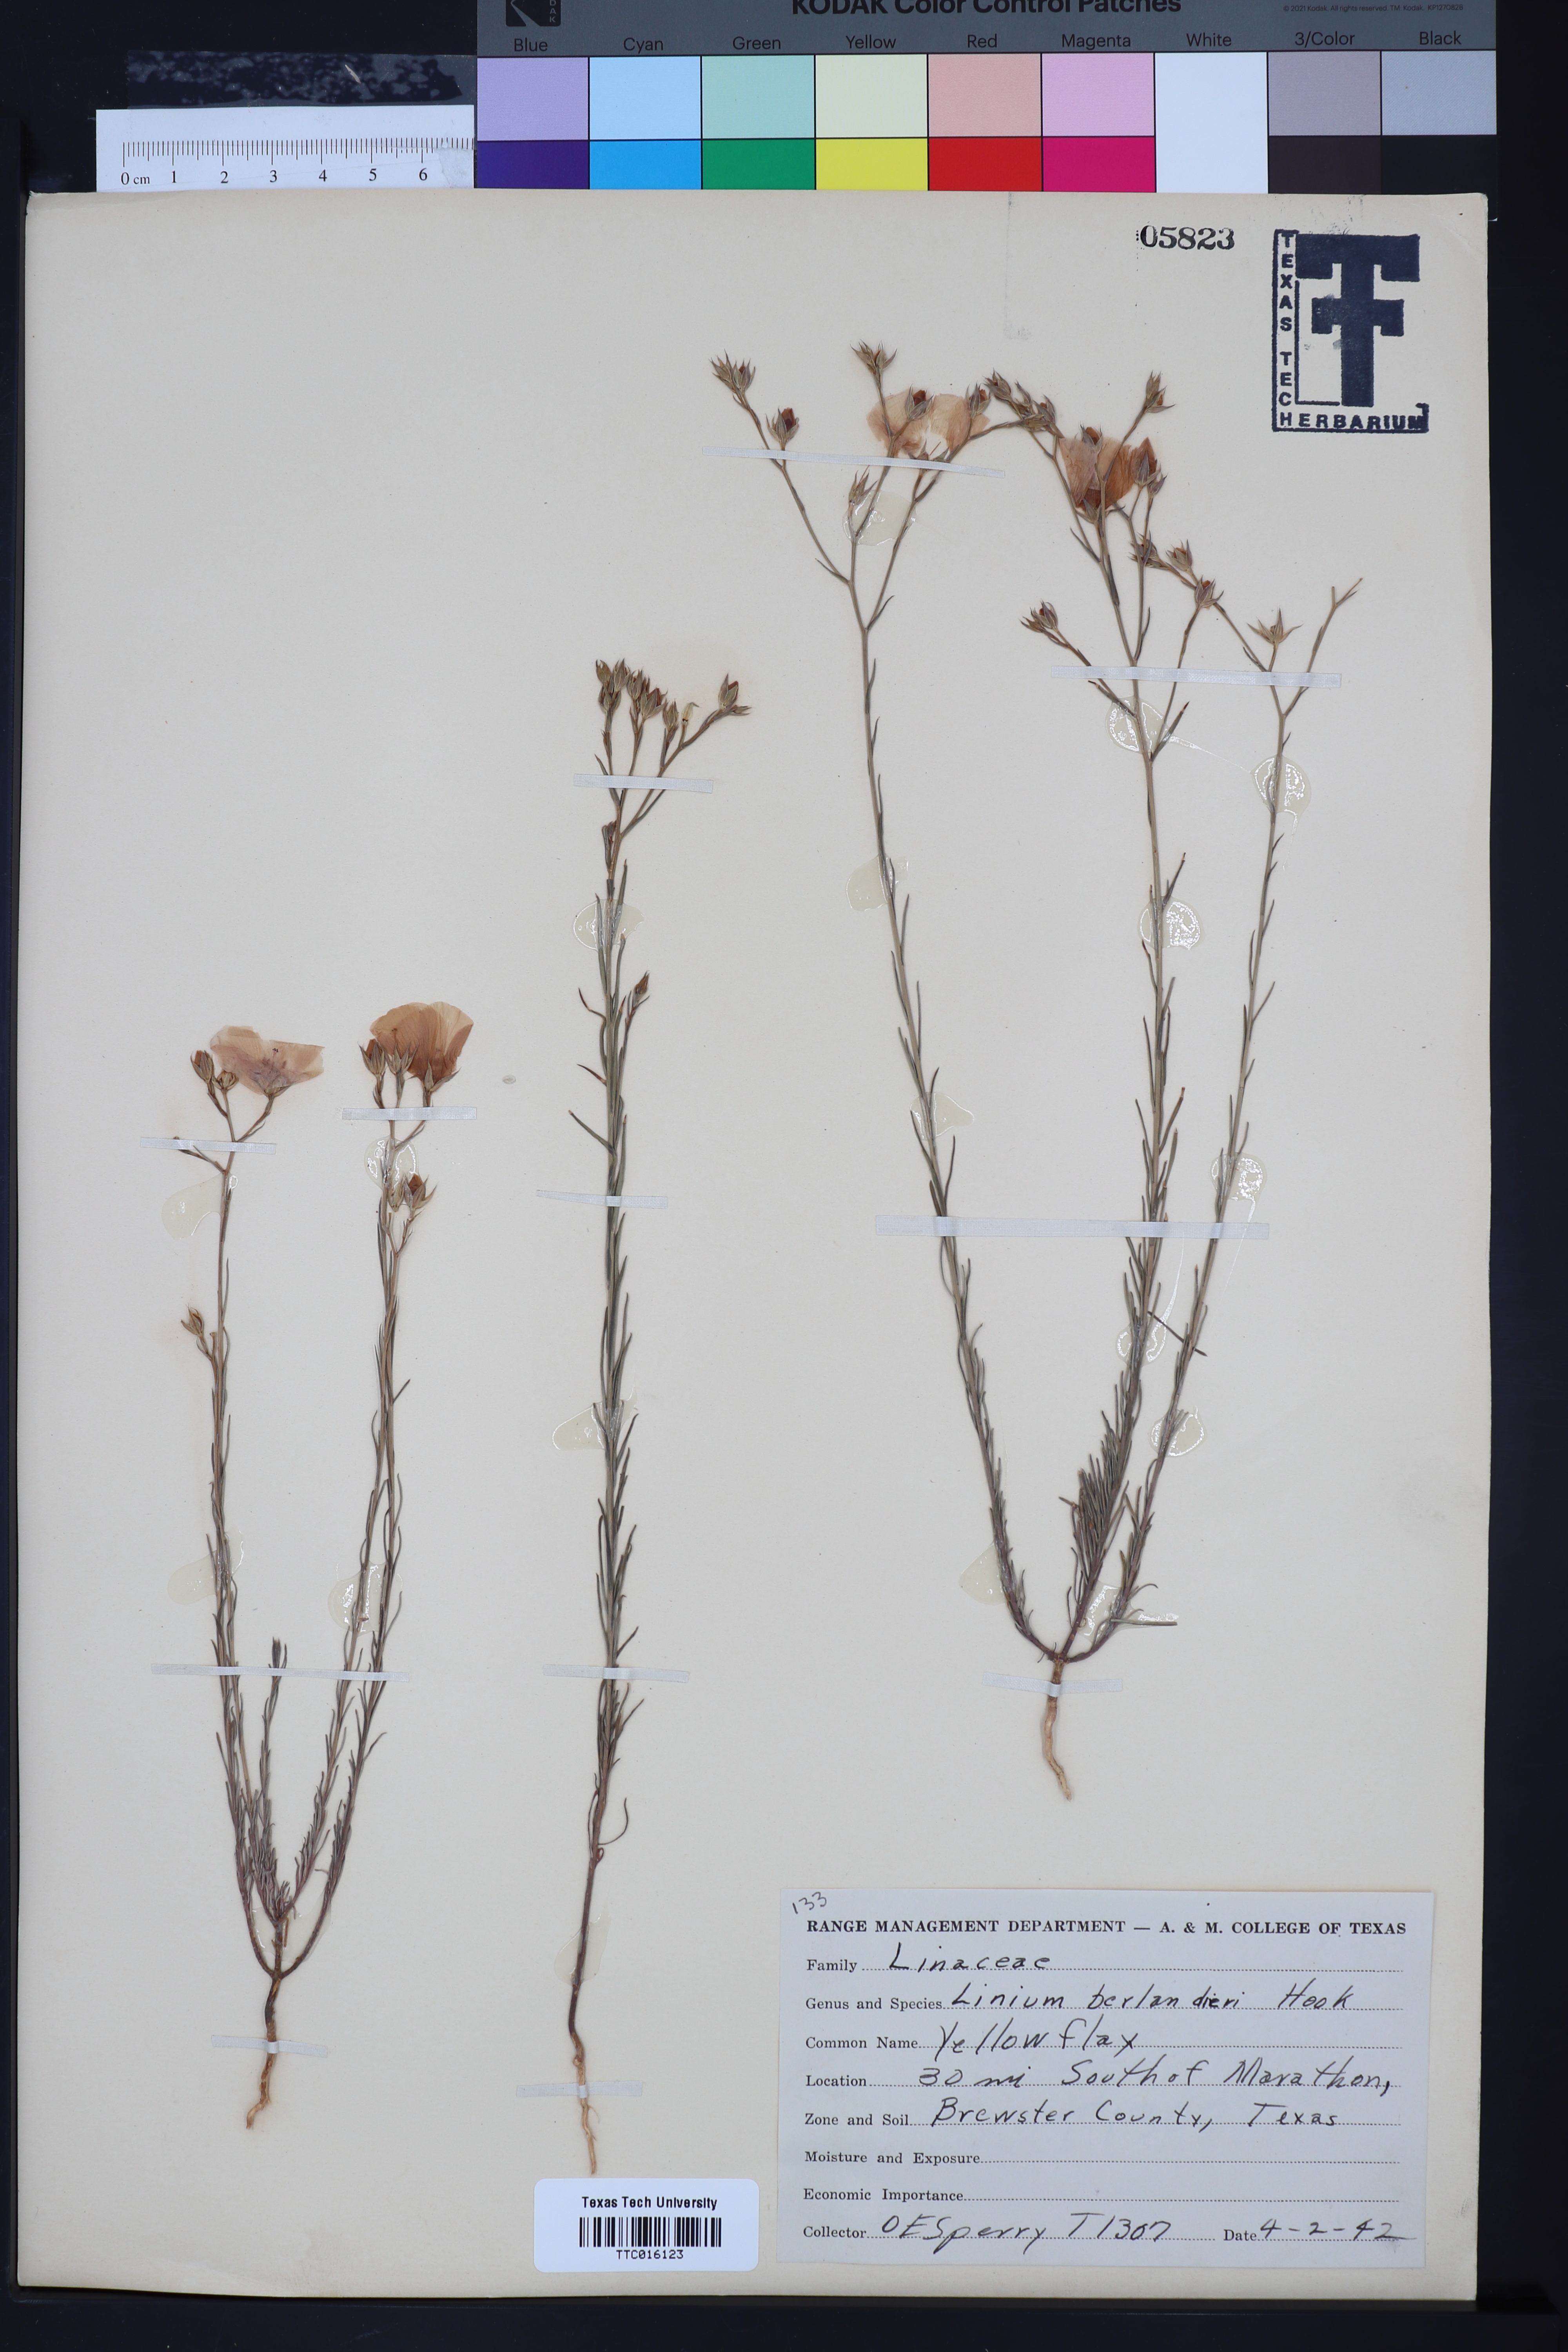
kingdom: Plantae
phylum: Tracheophyta
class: Magnoliopsida
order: Malpighiales
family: Linaceae
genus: Linum
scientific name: Linum berlandieri
